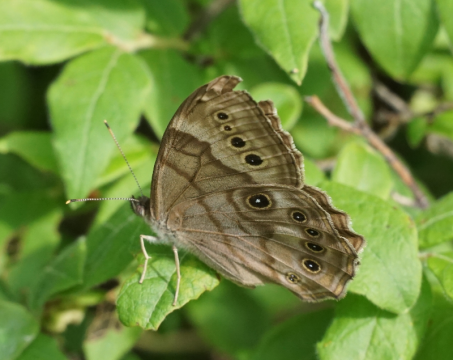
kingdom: Animalia
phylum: Arthropoda
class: Insecta
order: Lepidoptera
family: Nymphalidae
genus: Lethe
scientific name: Lethe anthedon
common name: Northern Pearly-Eye
